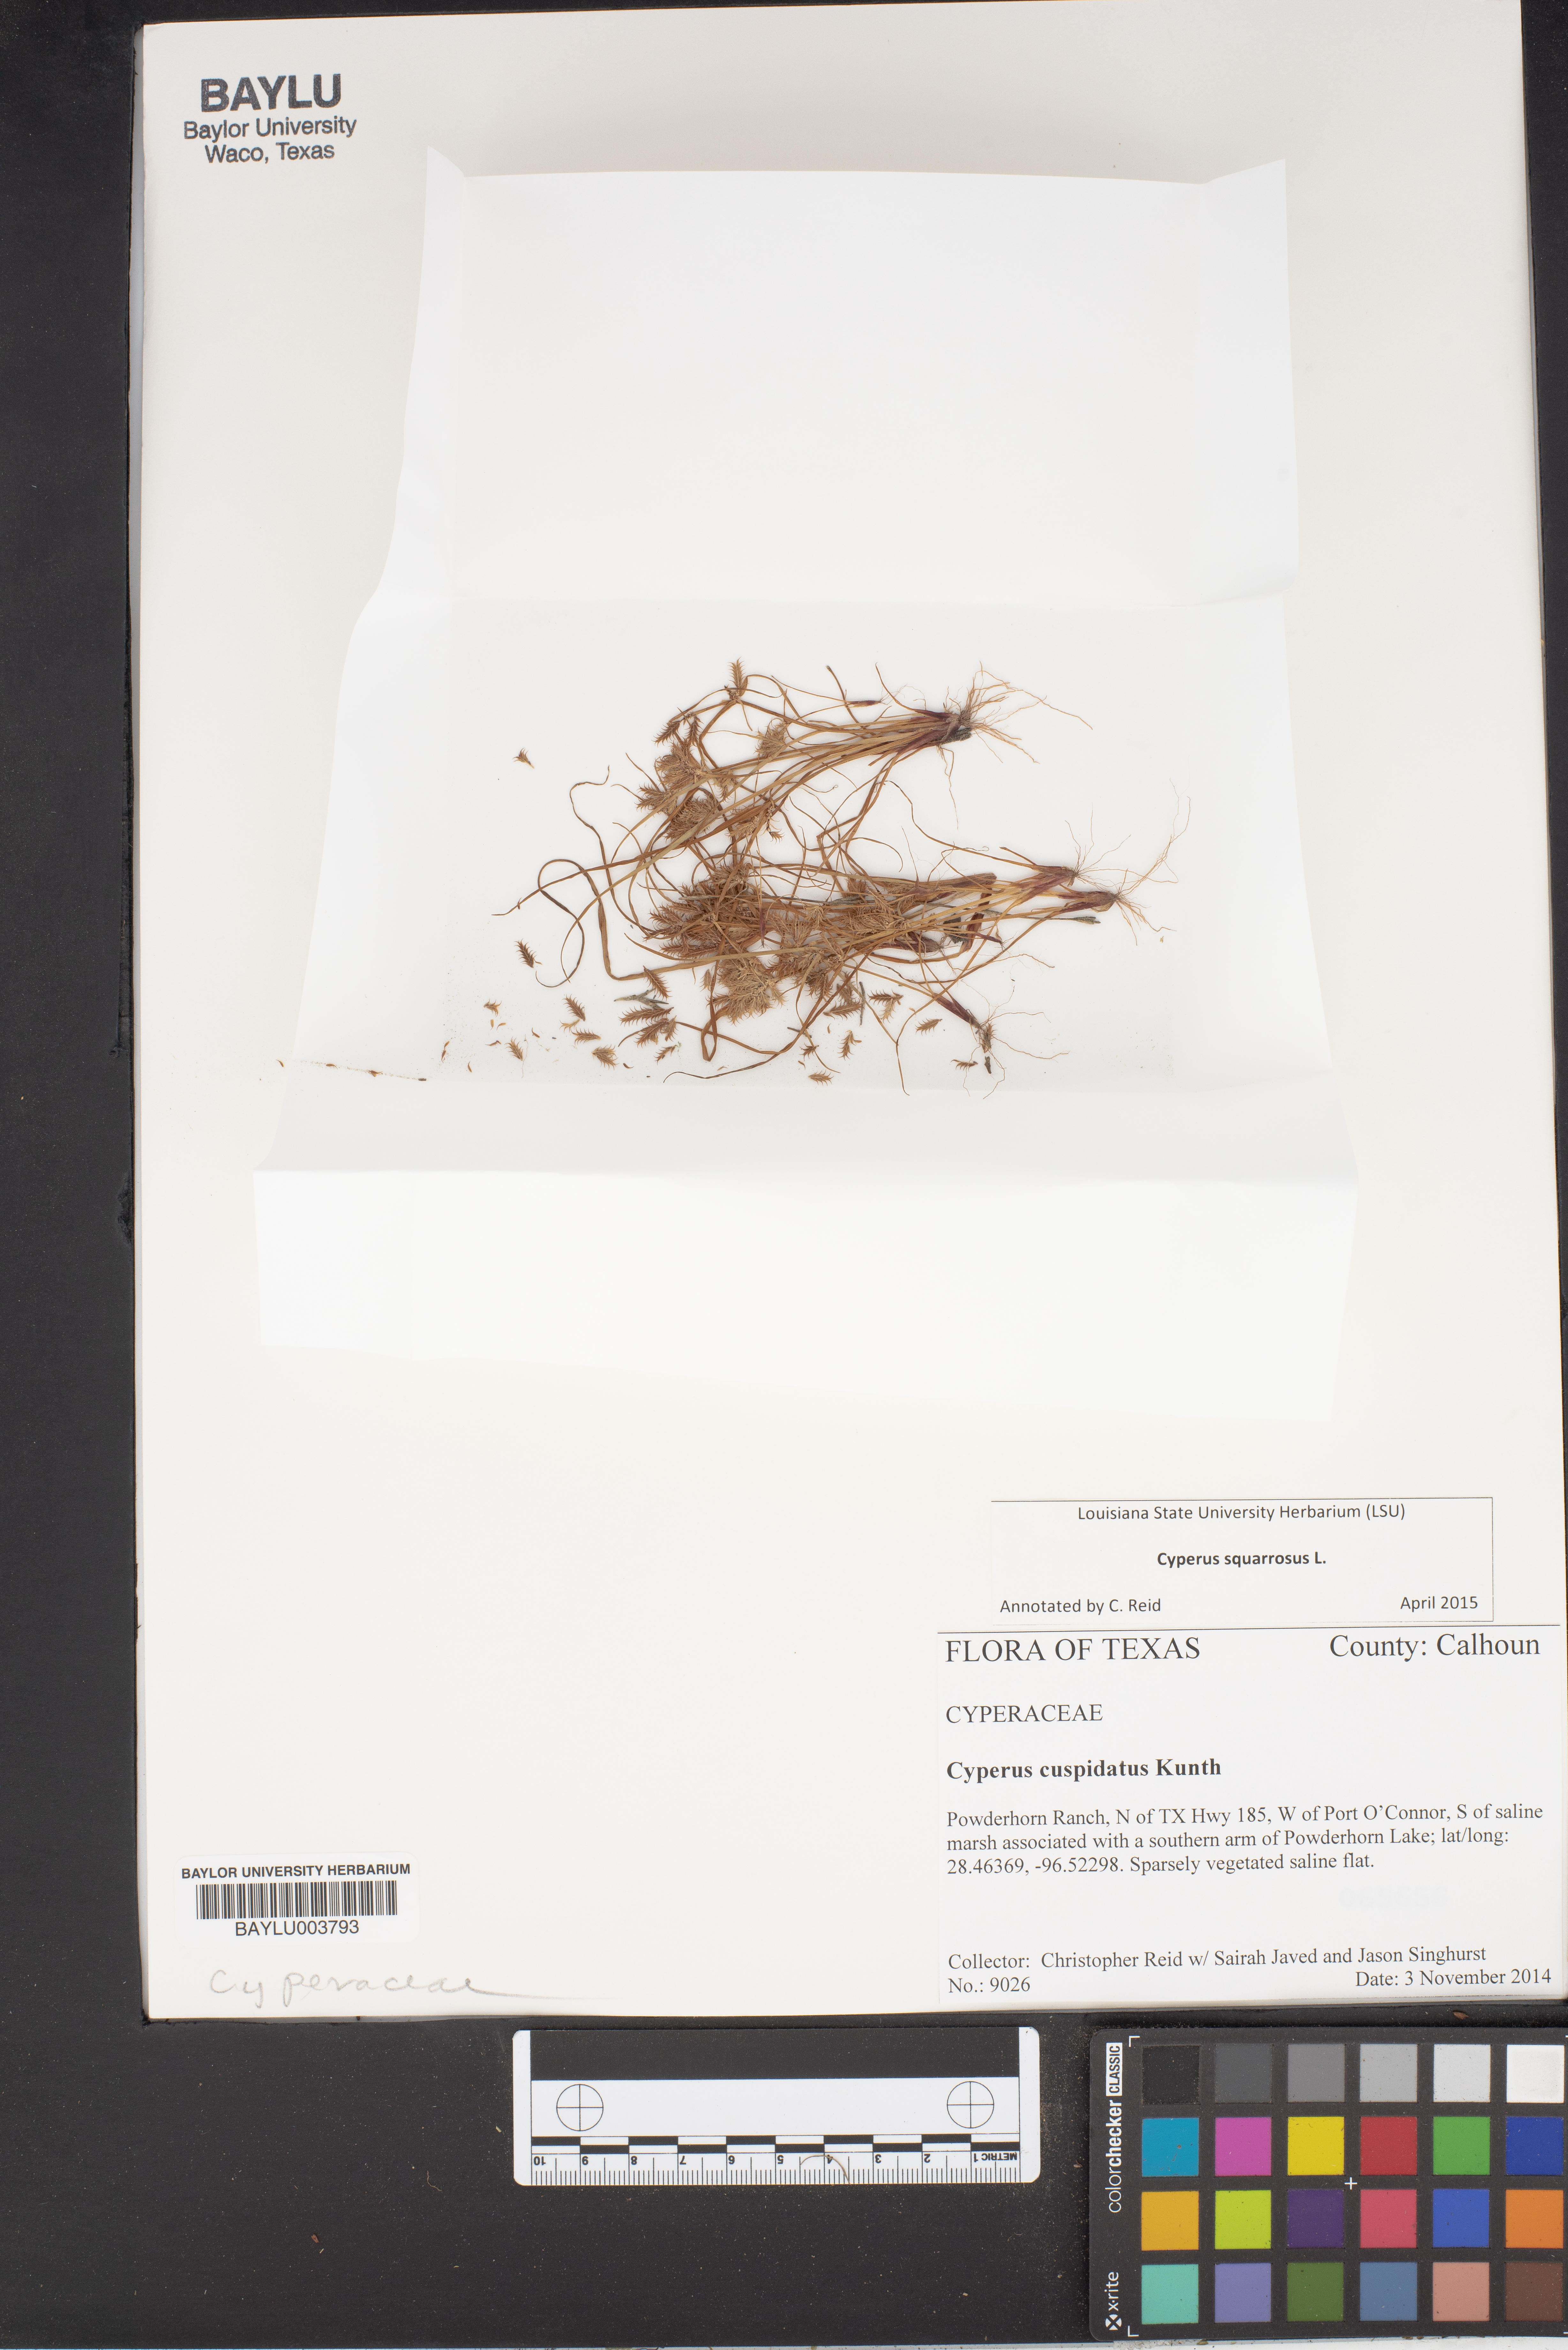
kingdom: Plantae
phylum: Tracheophyta
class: Liliopsida
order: Poales
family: Cyperaceae
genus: Cyperus
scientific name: Cyperus cuspidatus
